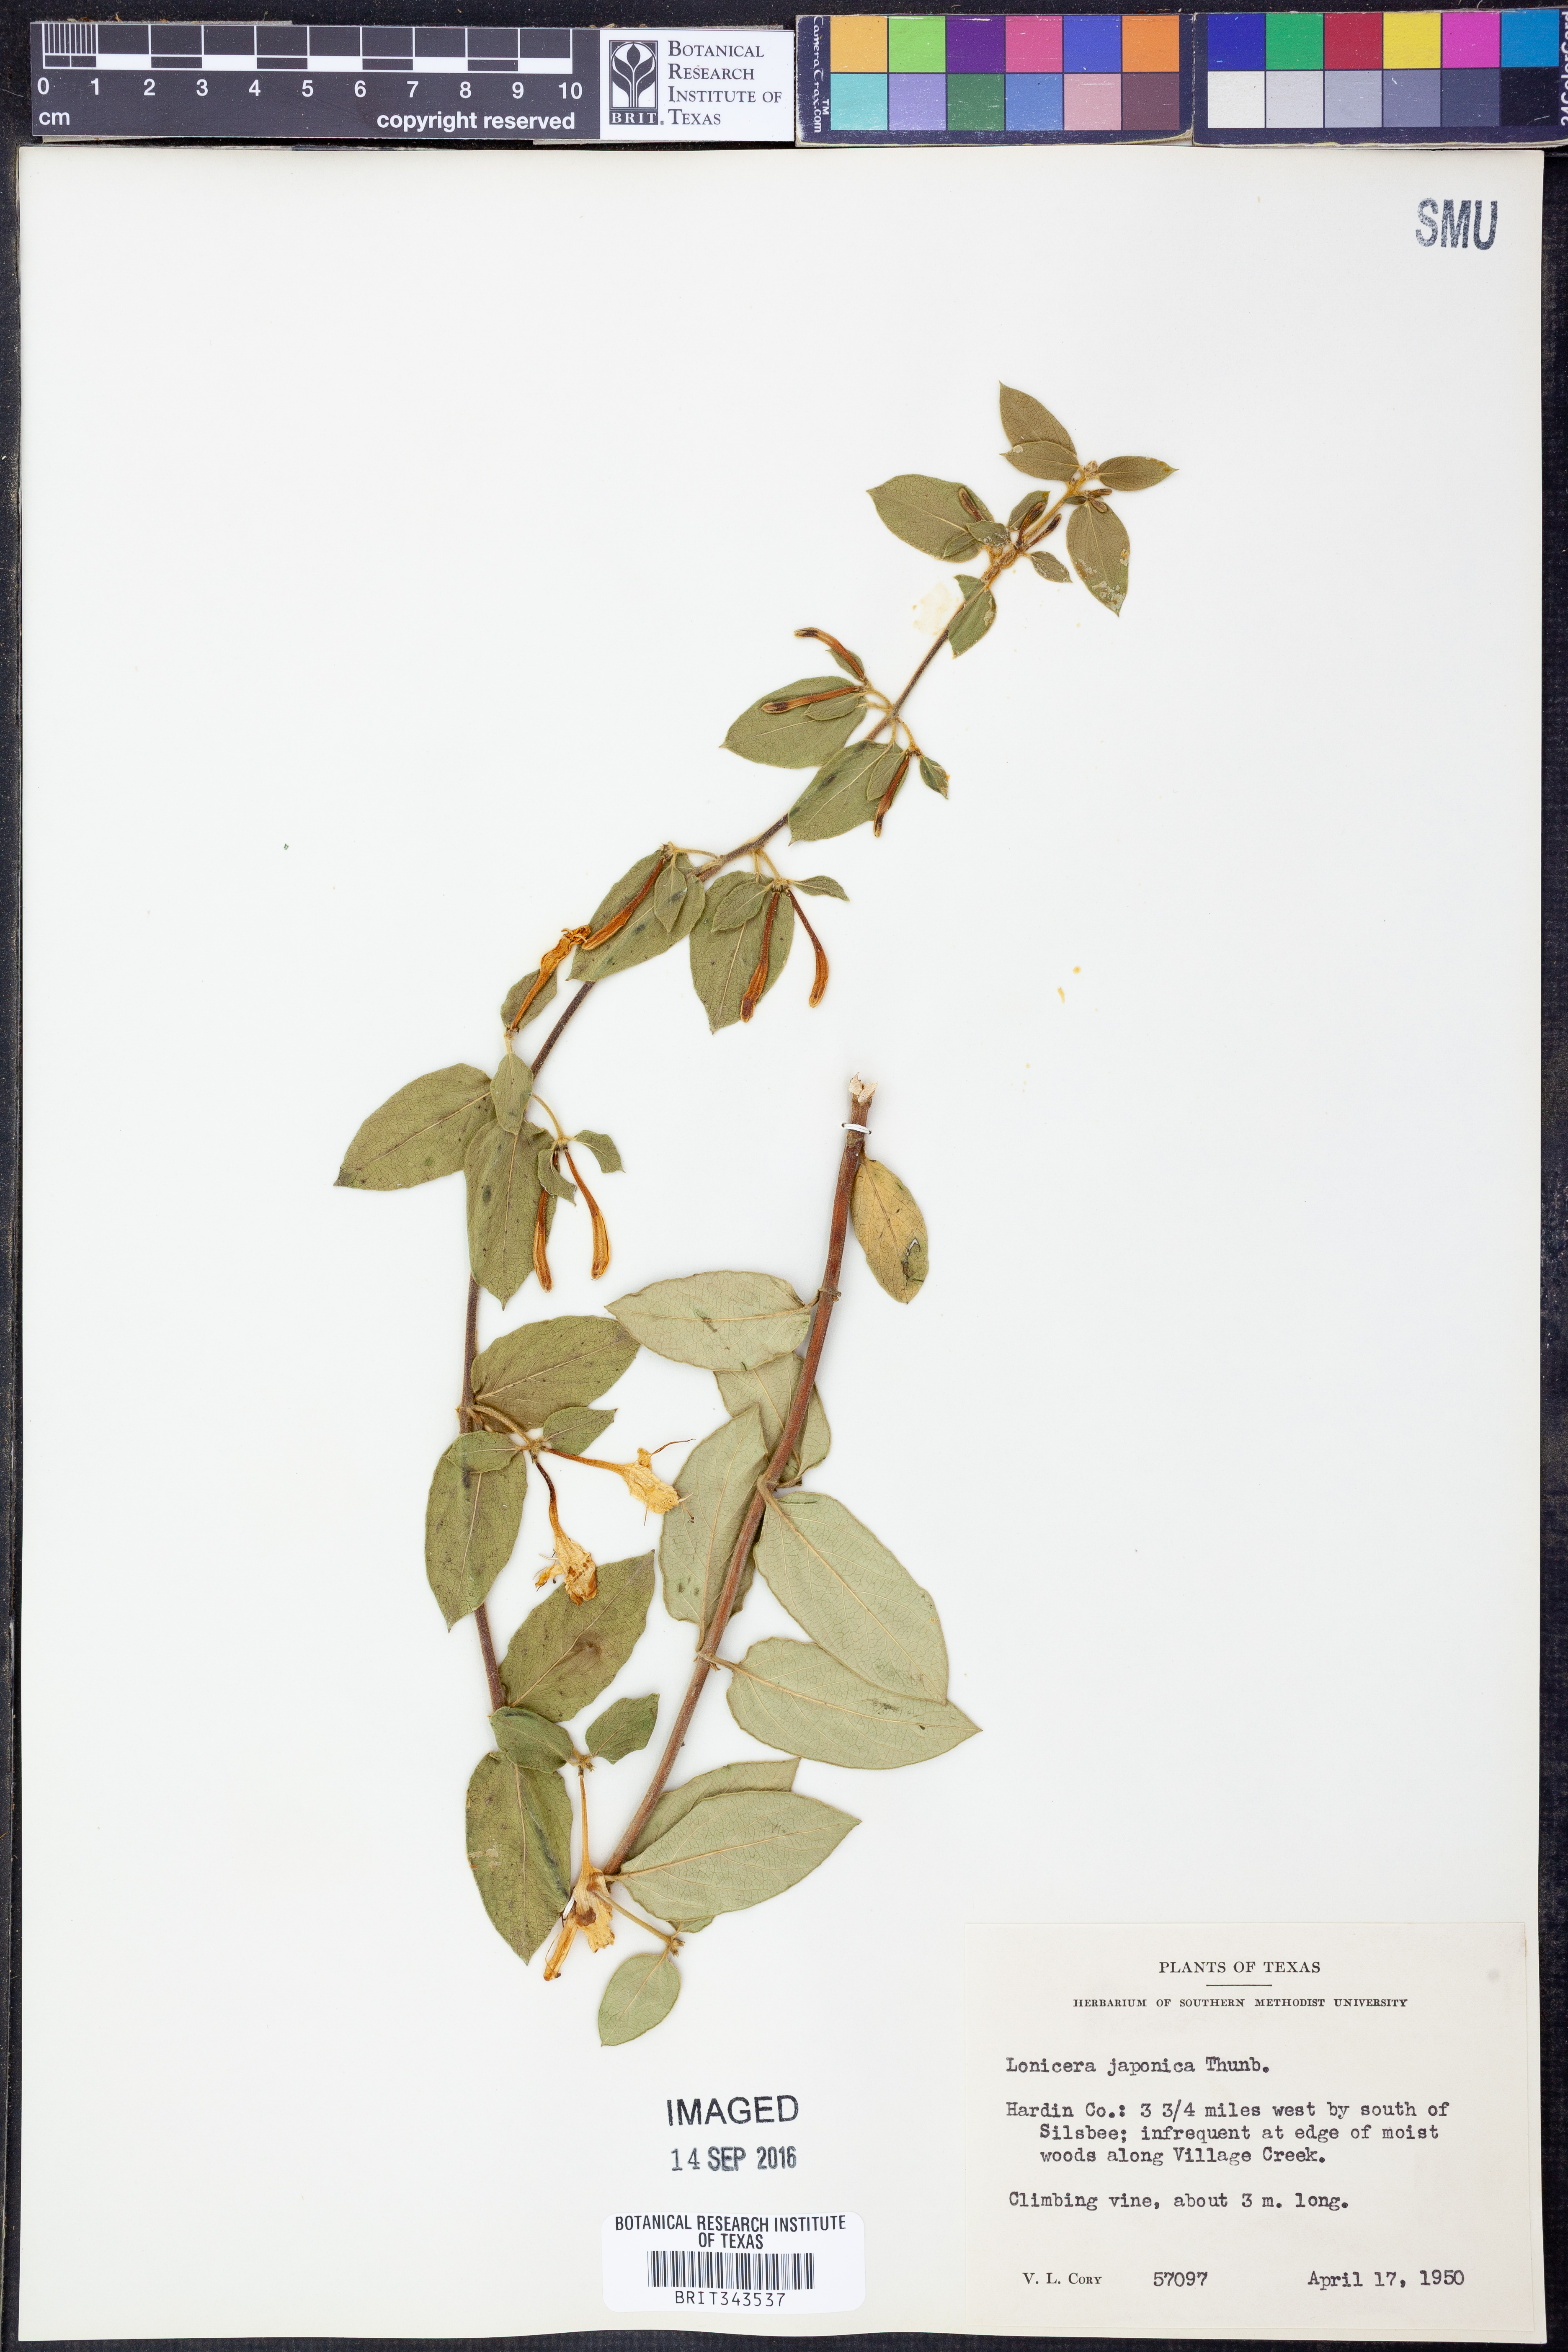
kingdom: Plantae
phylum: Tracheophyta
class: Magnoliopsida
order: Dipsacales
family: Caprifoliaceae
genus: Lonicera
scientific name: Lonicera japonica
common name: Japanese honeysuckle
